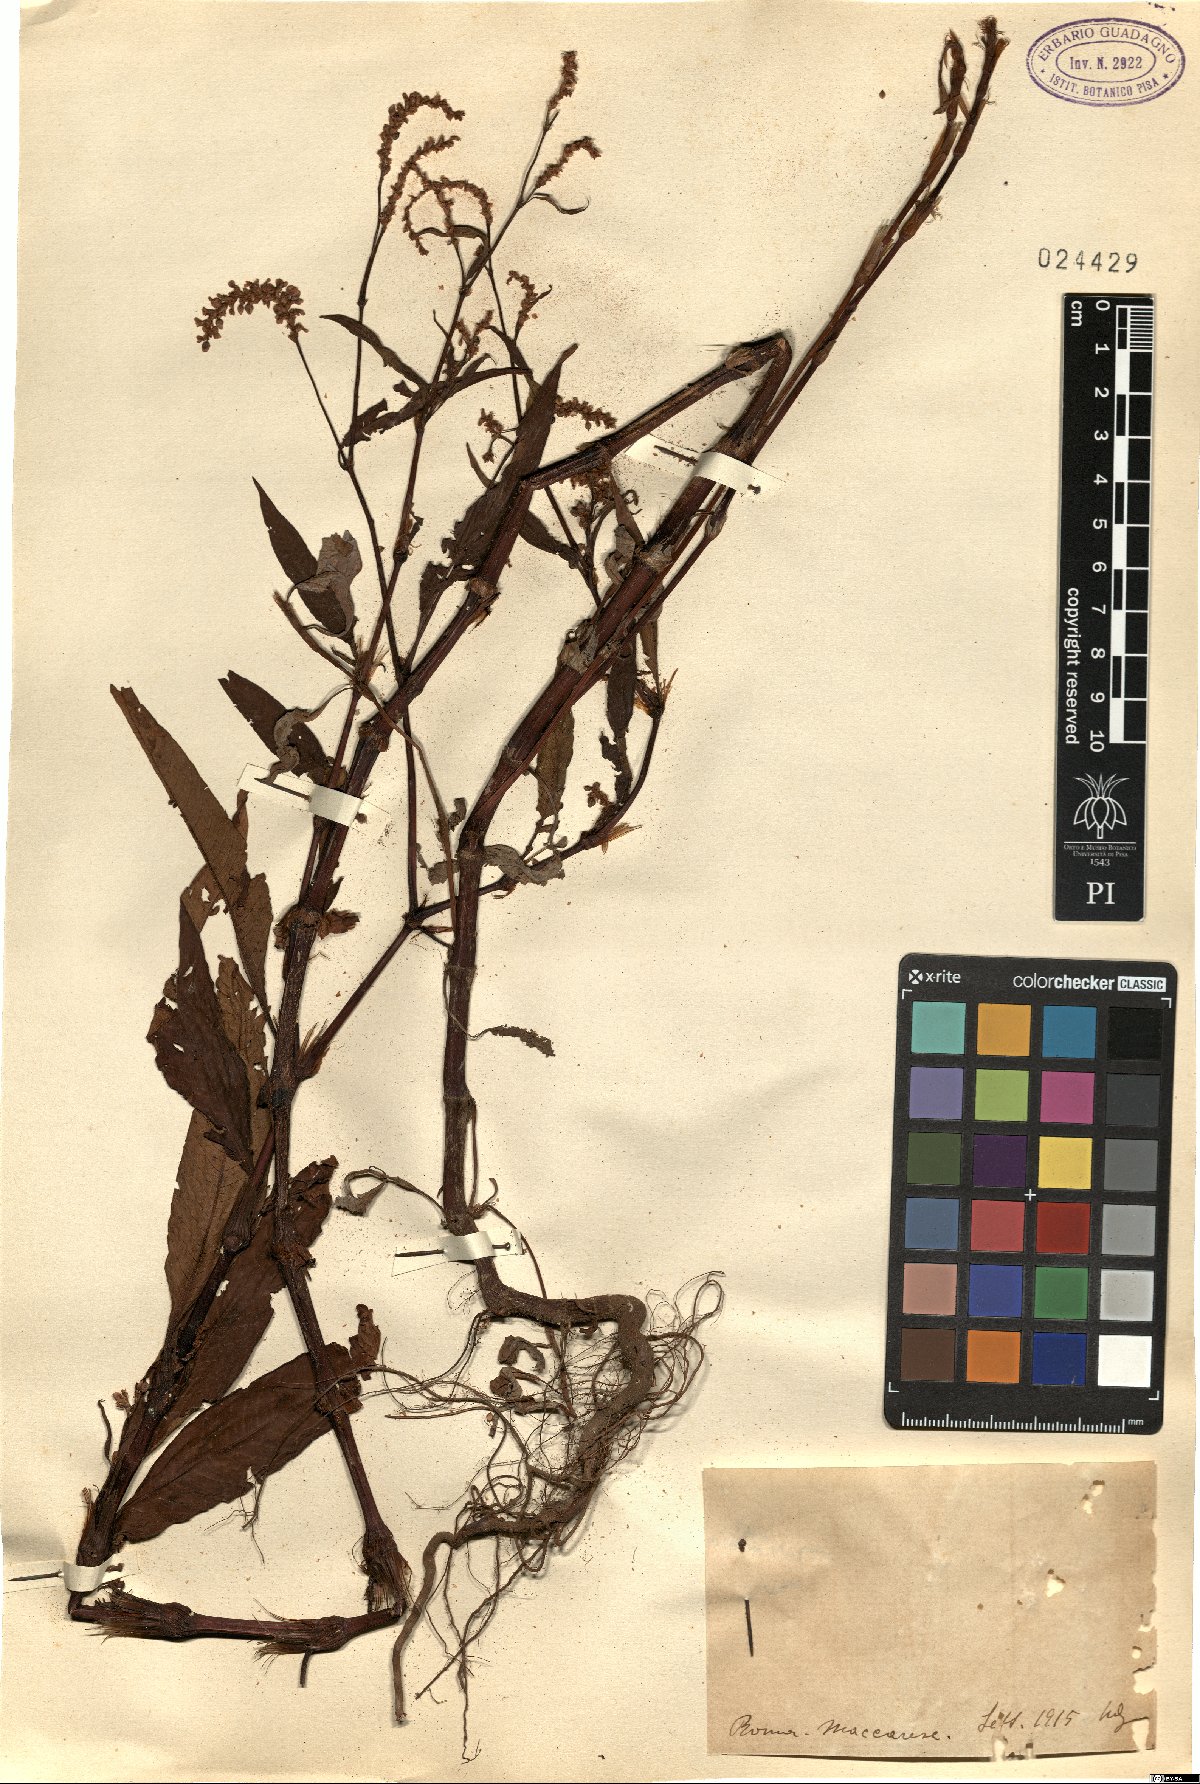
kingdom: Plantae
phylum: Tracheophyta
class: Magnoliopsida
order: Caryophyllales
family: Polygonaceae
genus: Polygonum
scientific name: Polygonum
